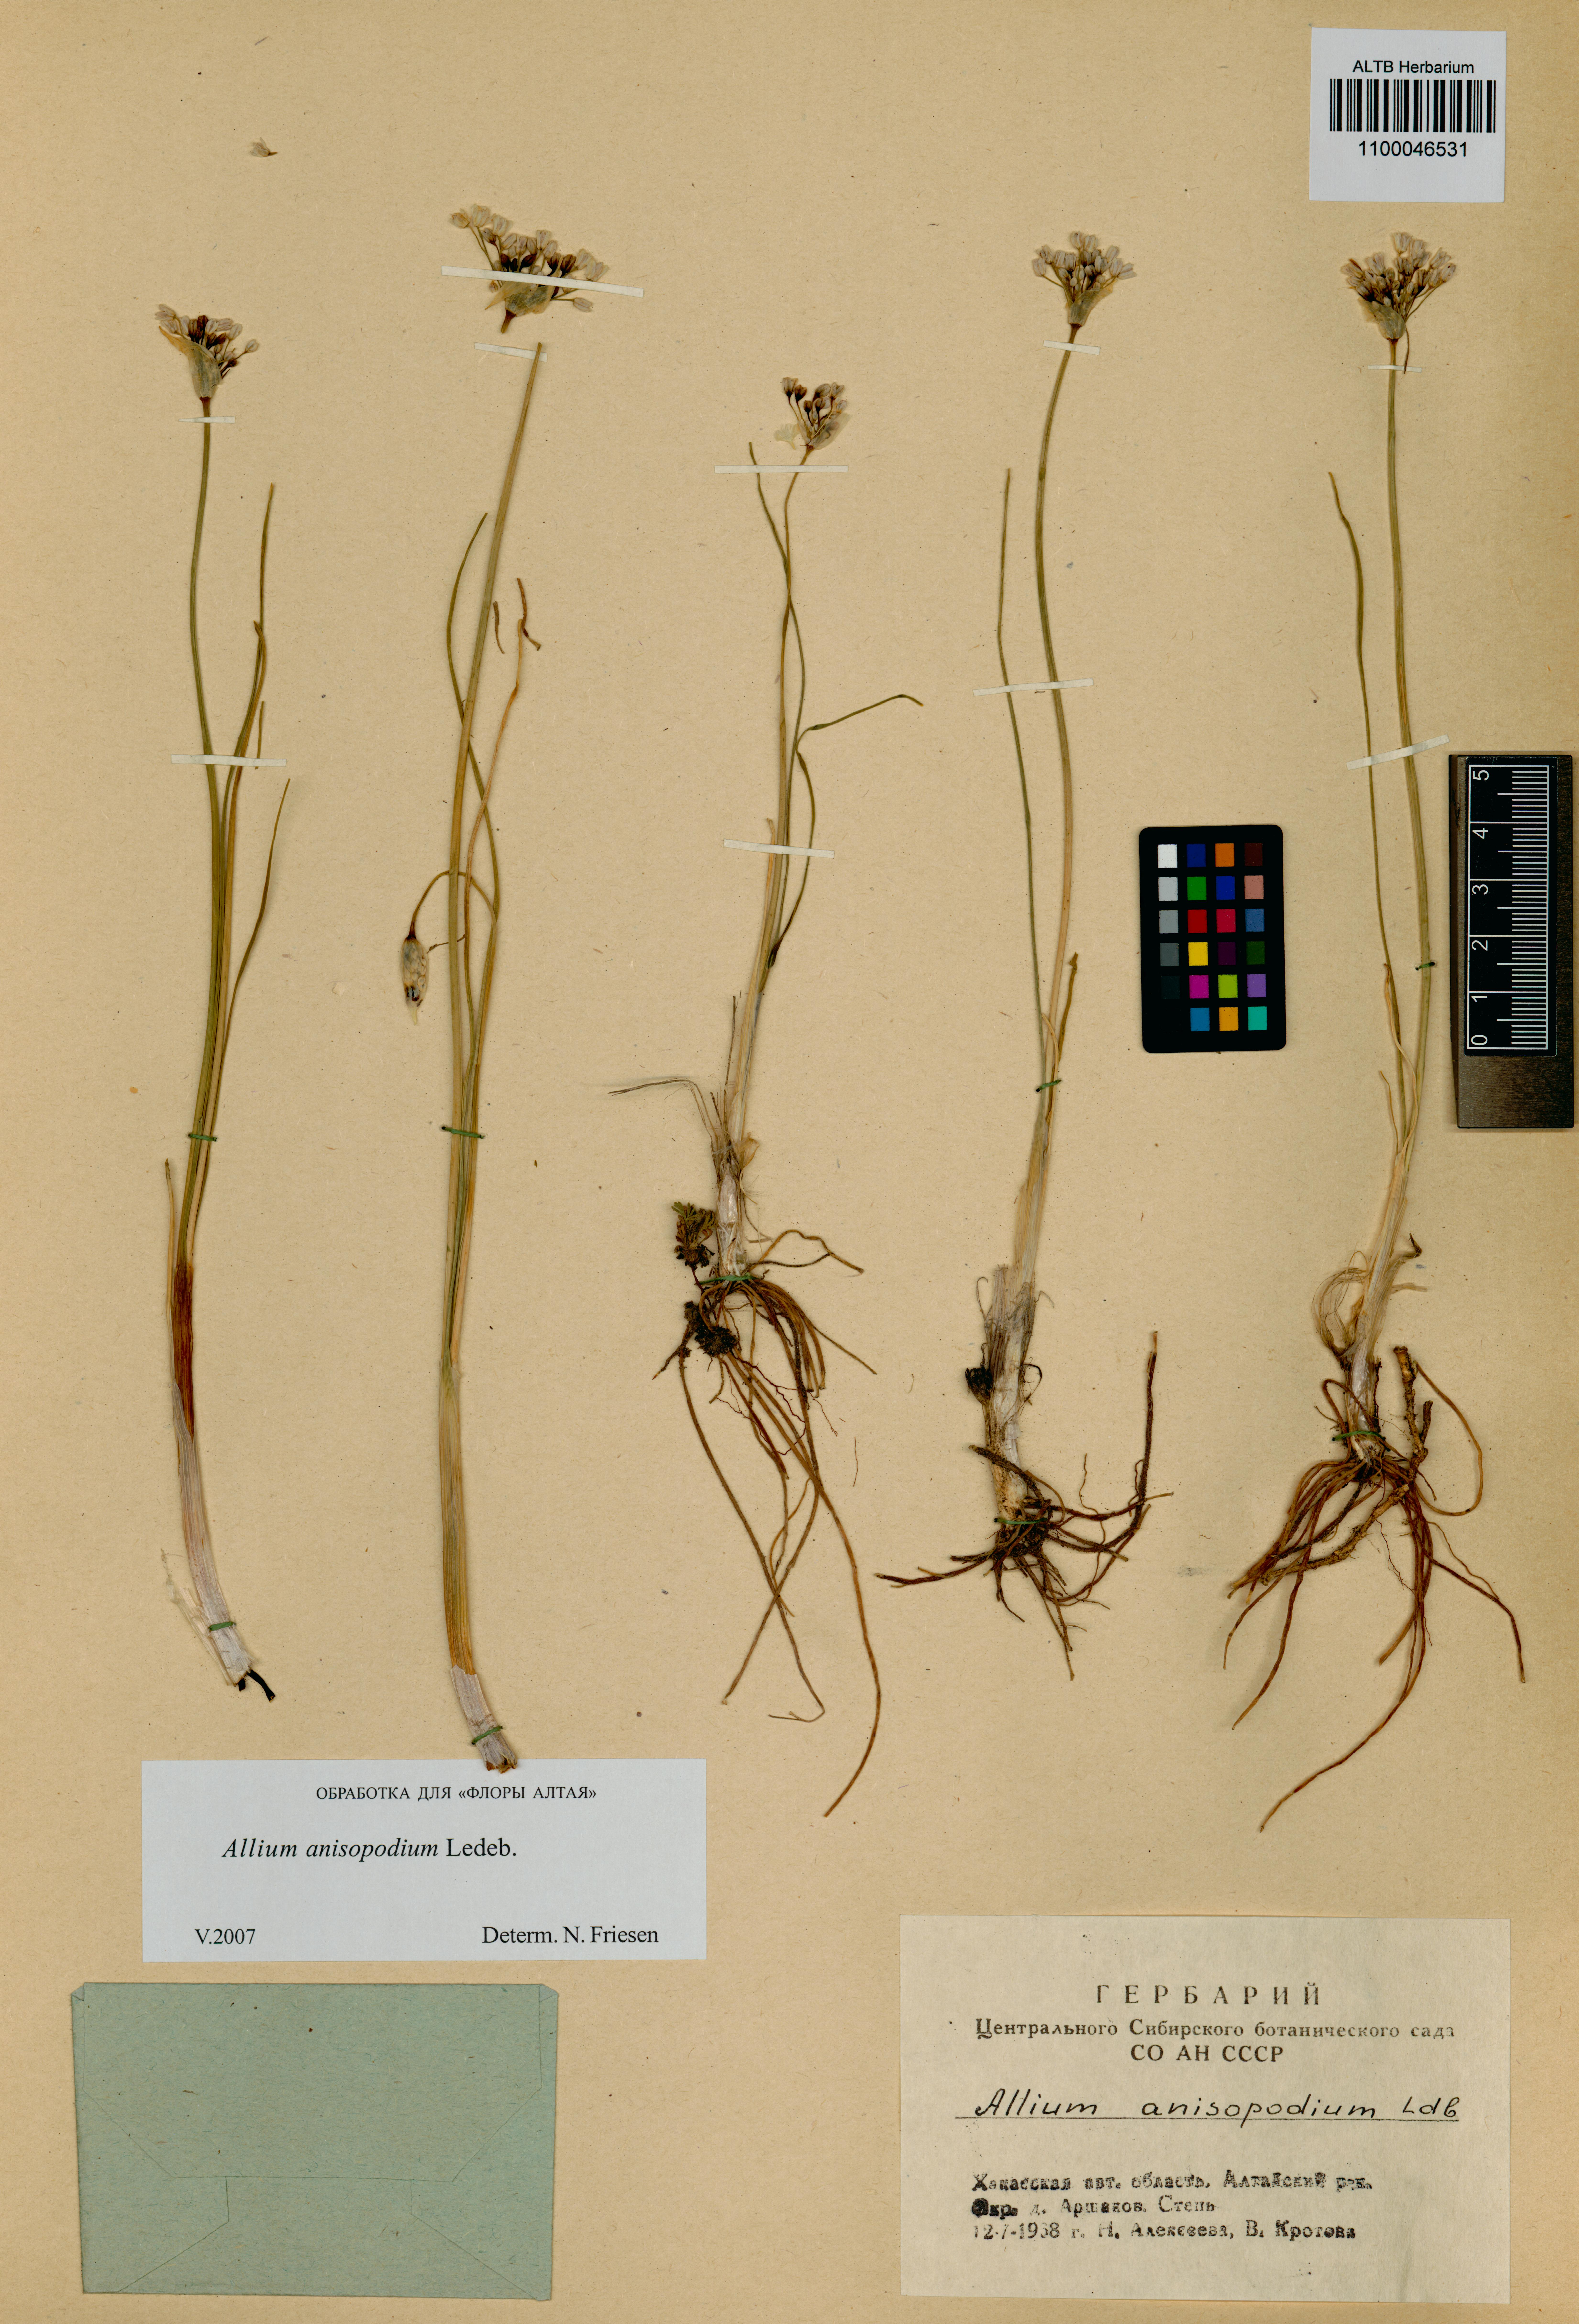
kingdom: Plantae
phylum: Tracheophyta
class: Liliopsida
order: Asparagales
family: Amaryllidaceae
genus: Allium
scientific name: Allium anisopodium
